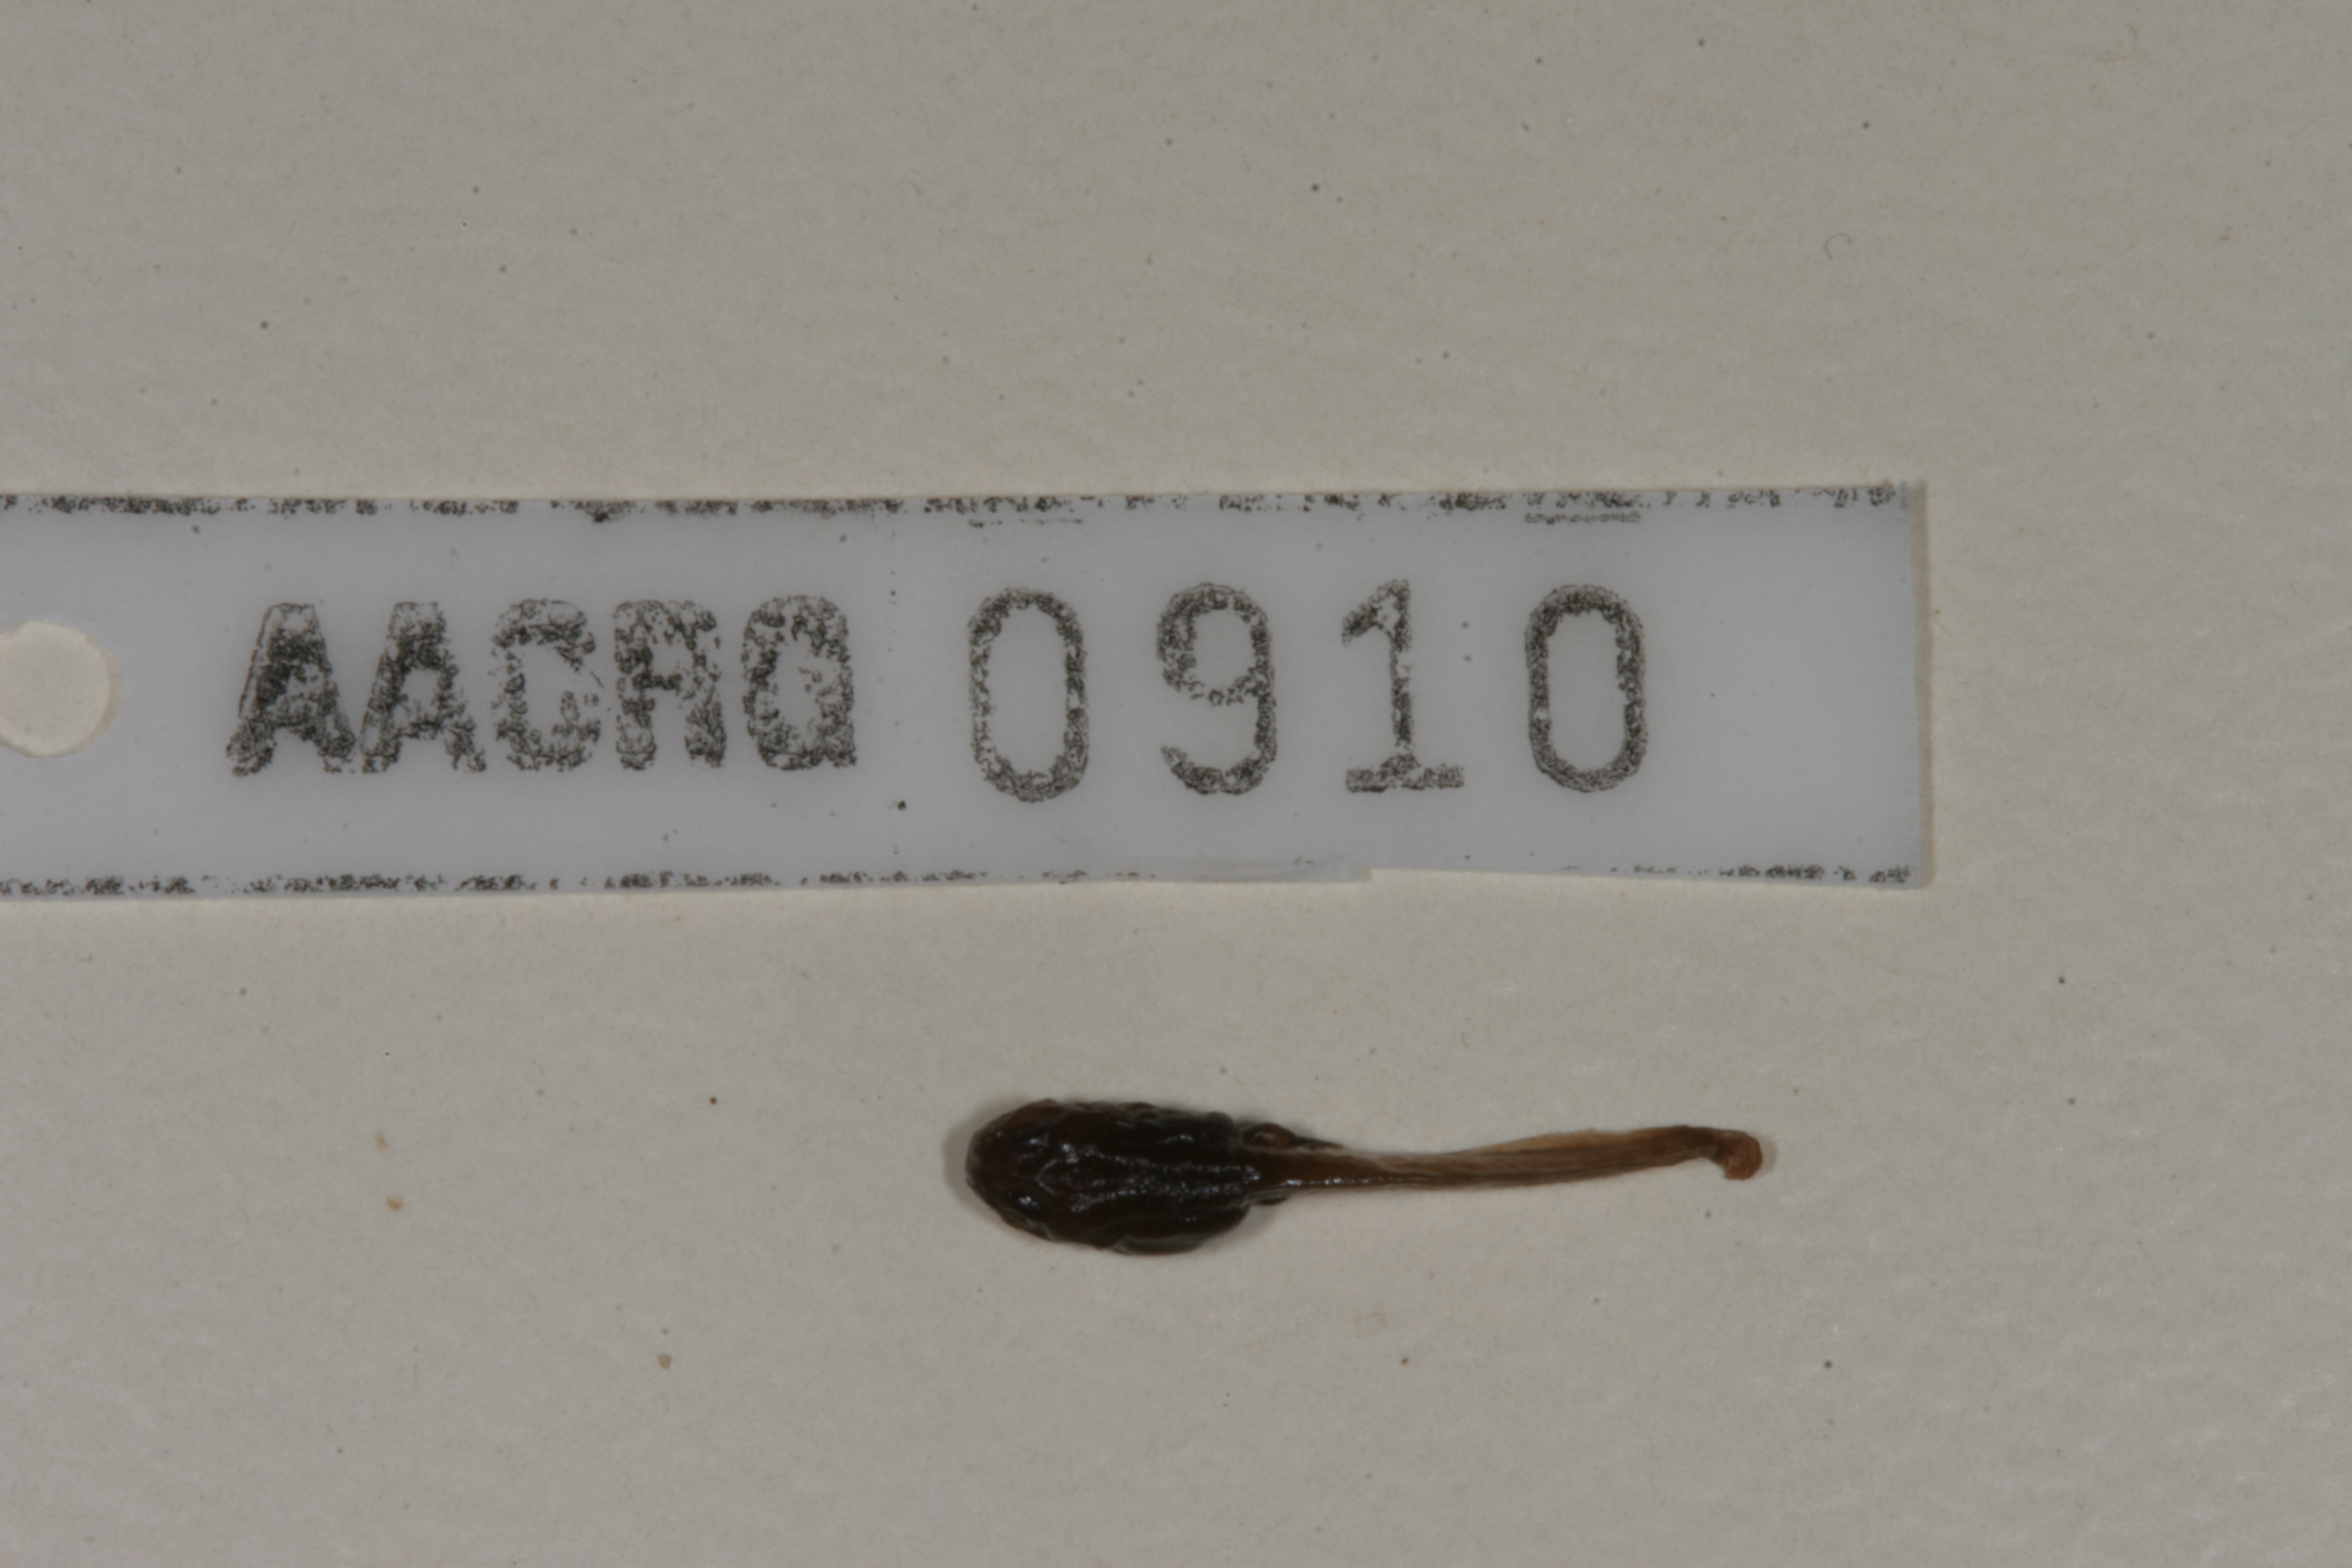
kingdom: Animalia
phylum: Chordata
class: Amphibia
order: Anura
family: Bufonidae
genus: Capensibufo
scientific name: Capensibufo rosei
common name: Cape mountain toad
